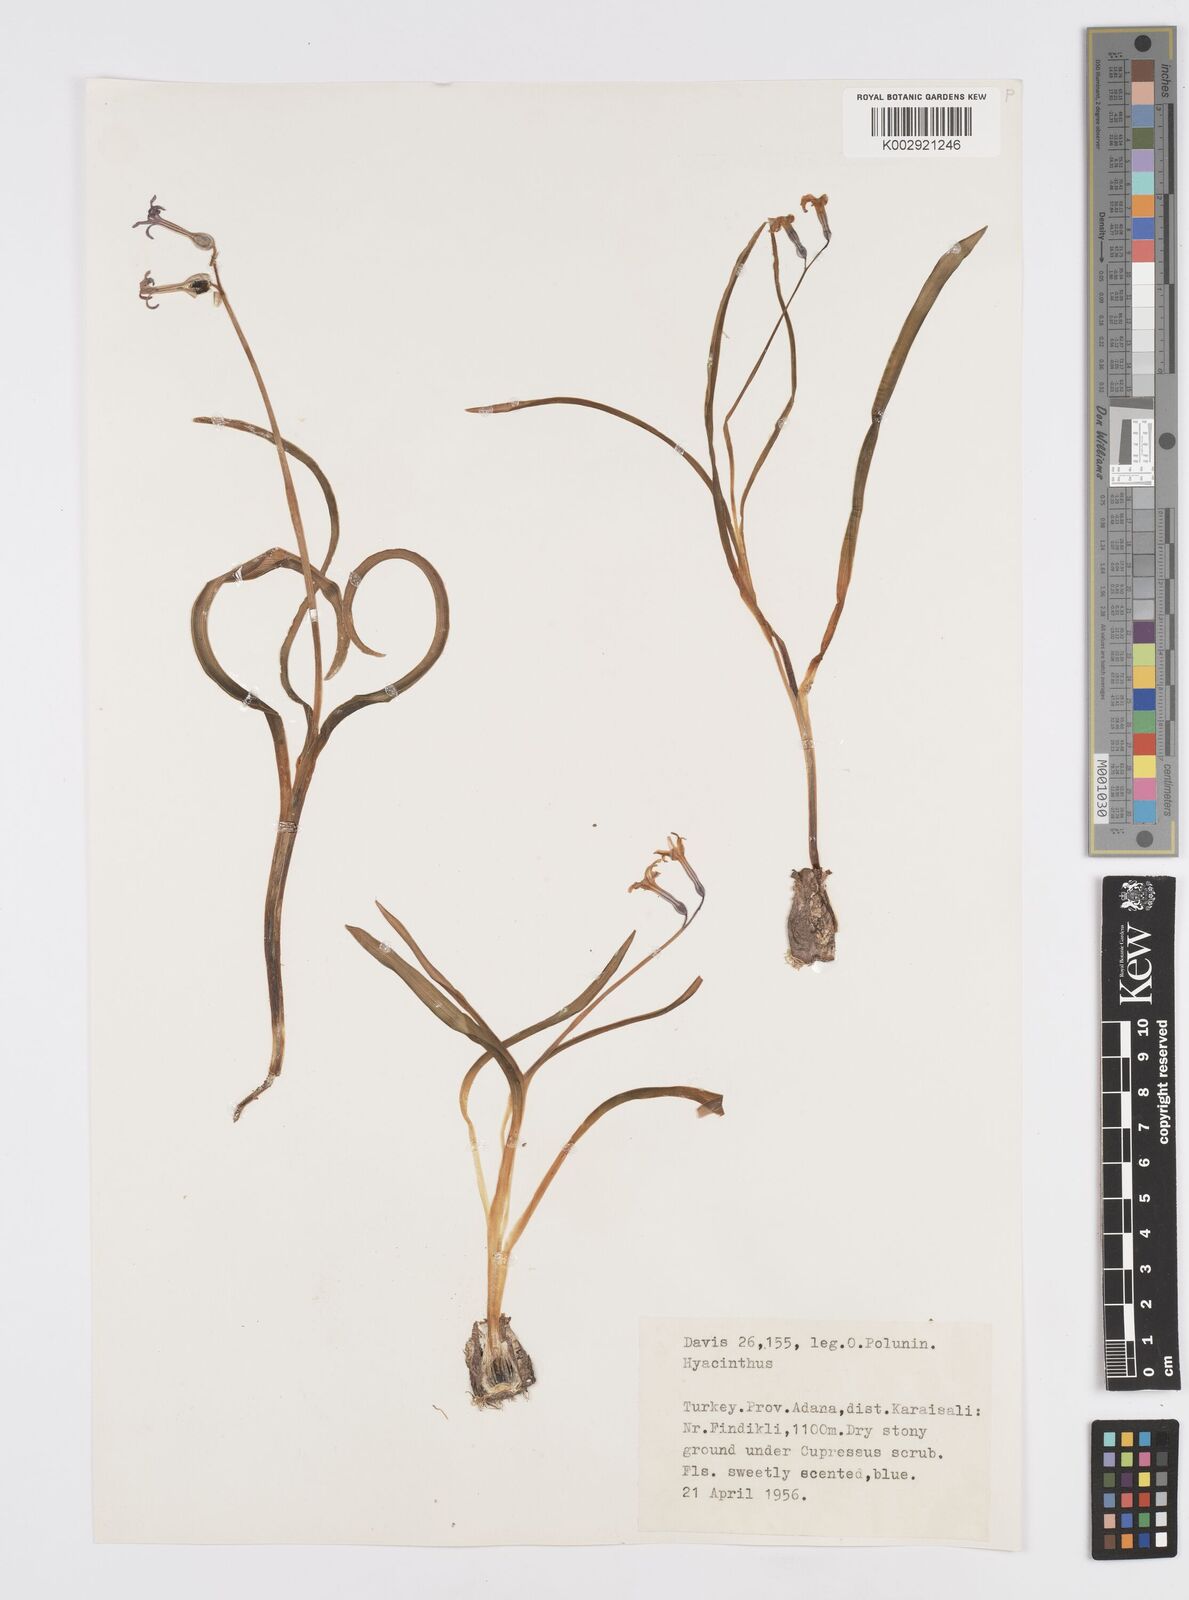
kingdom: Plantae
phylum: Tracheophyta
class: Liliopsida
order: Asparagales
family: Asparagaceae
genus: Hyacinthus
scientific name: Hyacinthus orientalis
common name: Hyacinth
